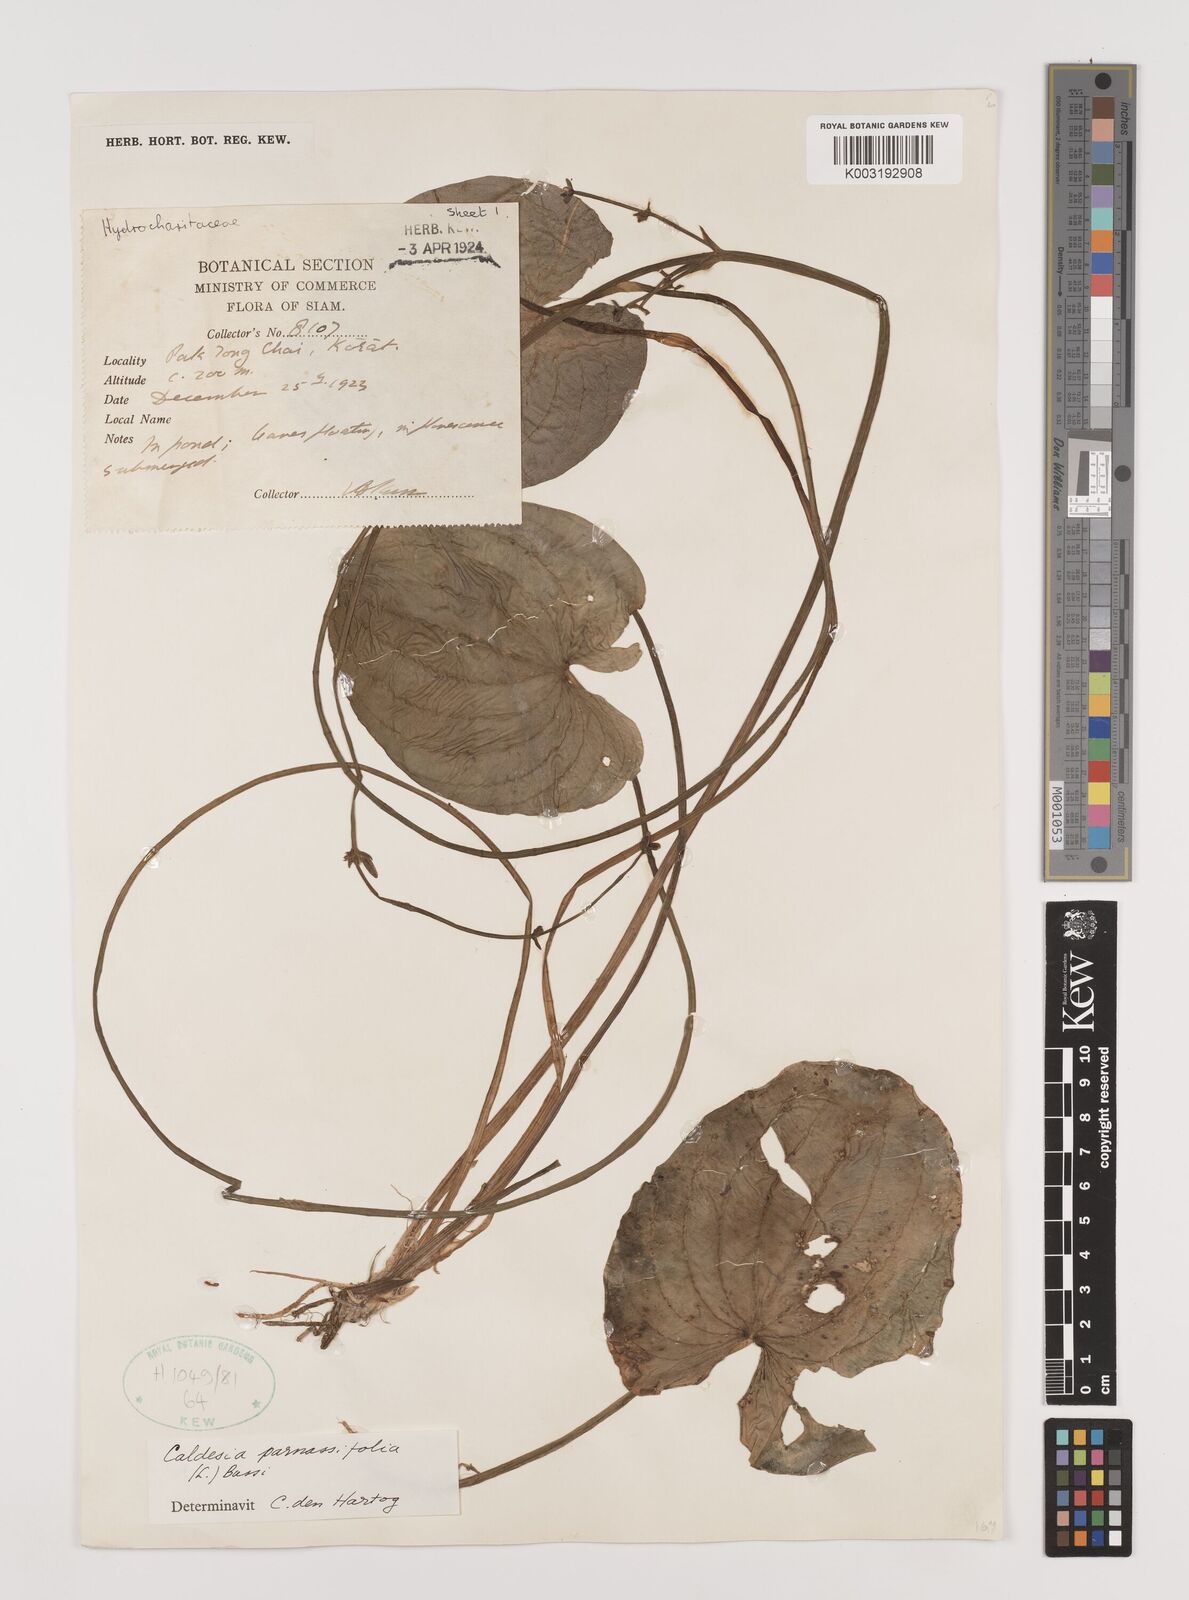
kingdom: Plantae
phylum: Tracheophyta
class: Liliopsida
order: Alismatales
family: Alismataceae
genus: Caldesia
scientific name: Caldesia parnassifolia
